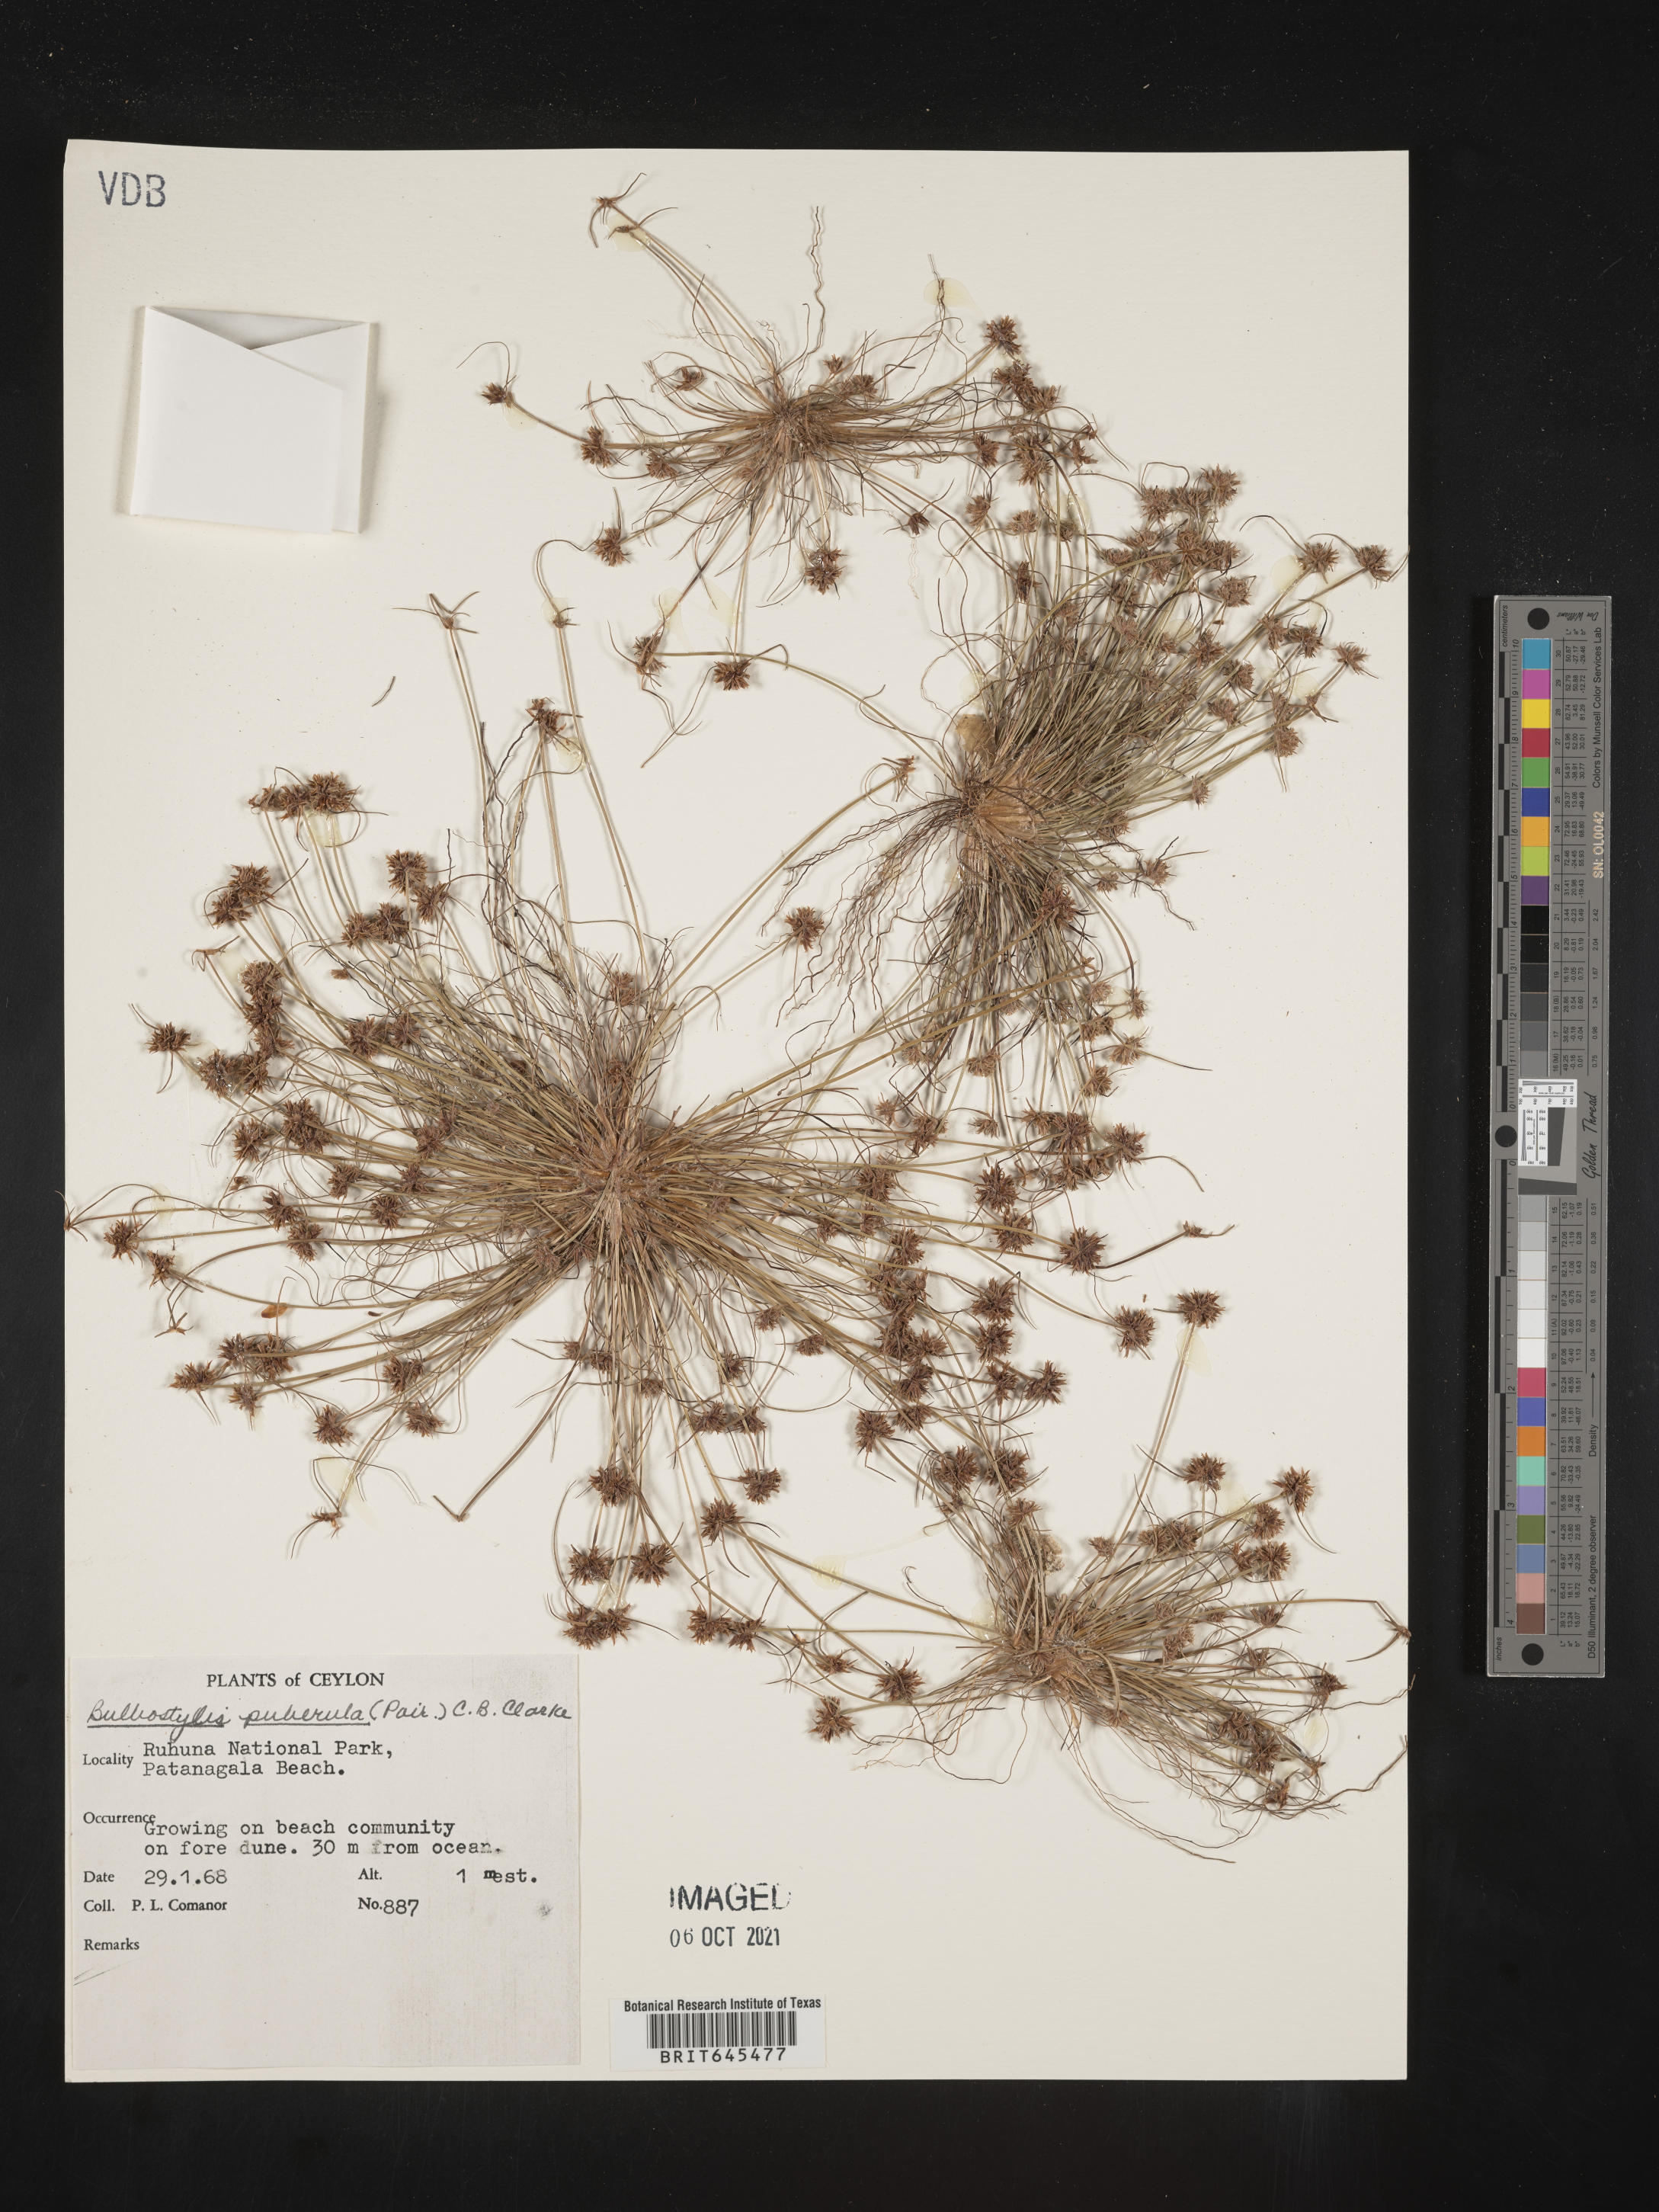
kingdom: Plantae
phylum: Tracheophyta
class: Liliopsida
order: Poales
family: Cyperaceae
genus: Bulbostylis
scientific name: Bulbostylis thouarsii
